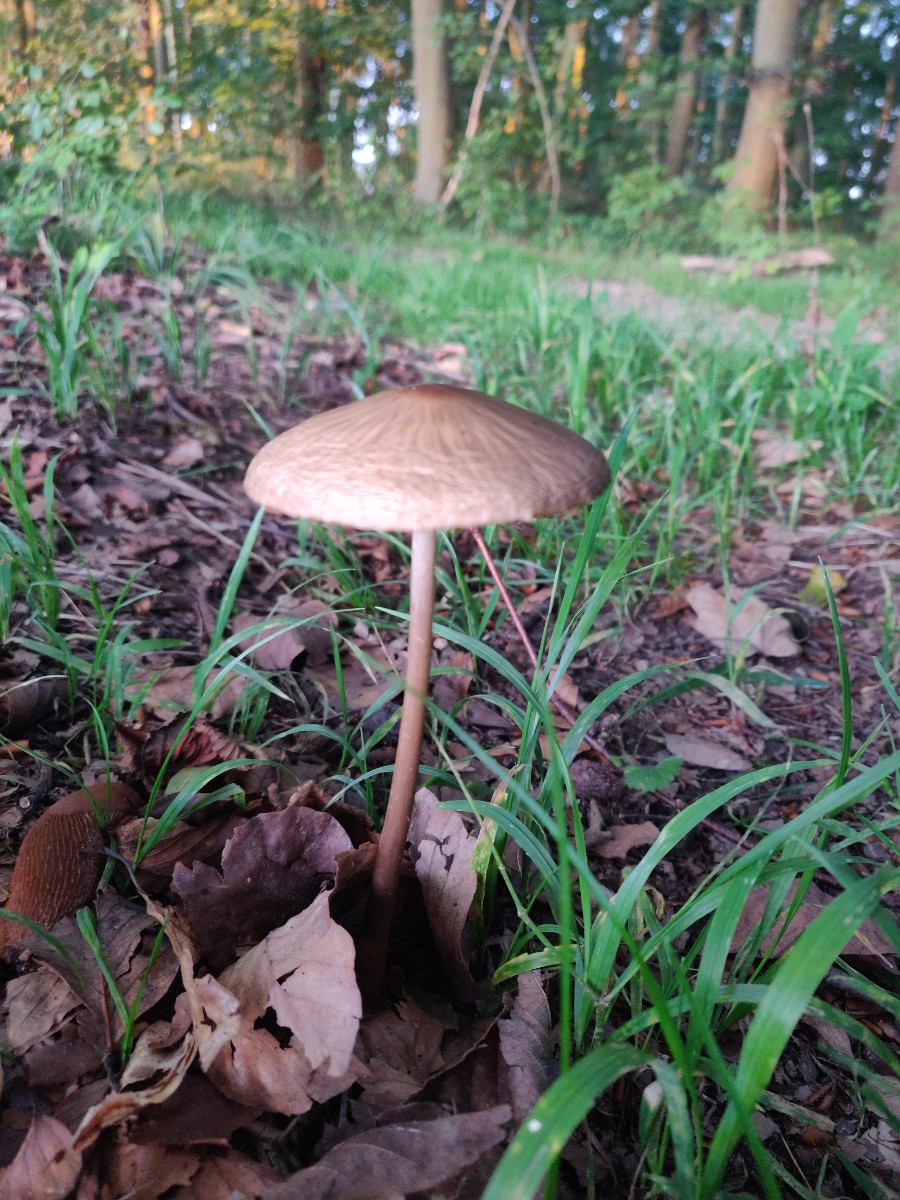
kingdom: Fungi
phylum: Basidiomycota
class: Agaricomycetes
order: Agaricales
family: Physalacriaceae
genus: Hymenopellis
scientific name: Hymenopellis radicata
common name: almindelig pælerodshat
